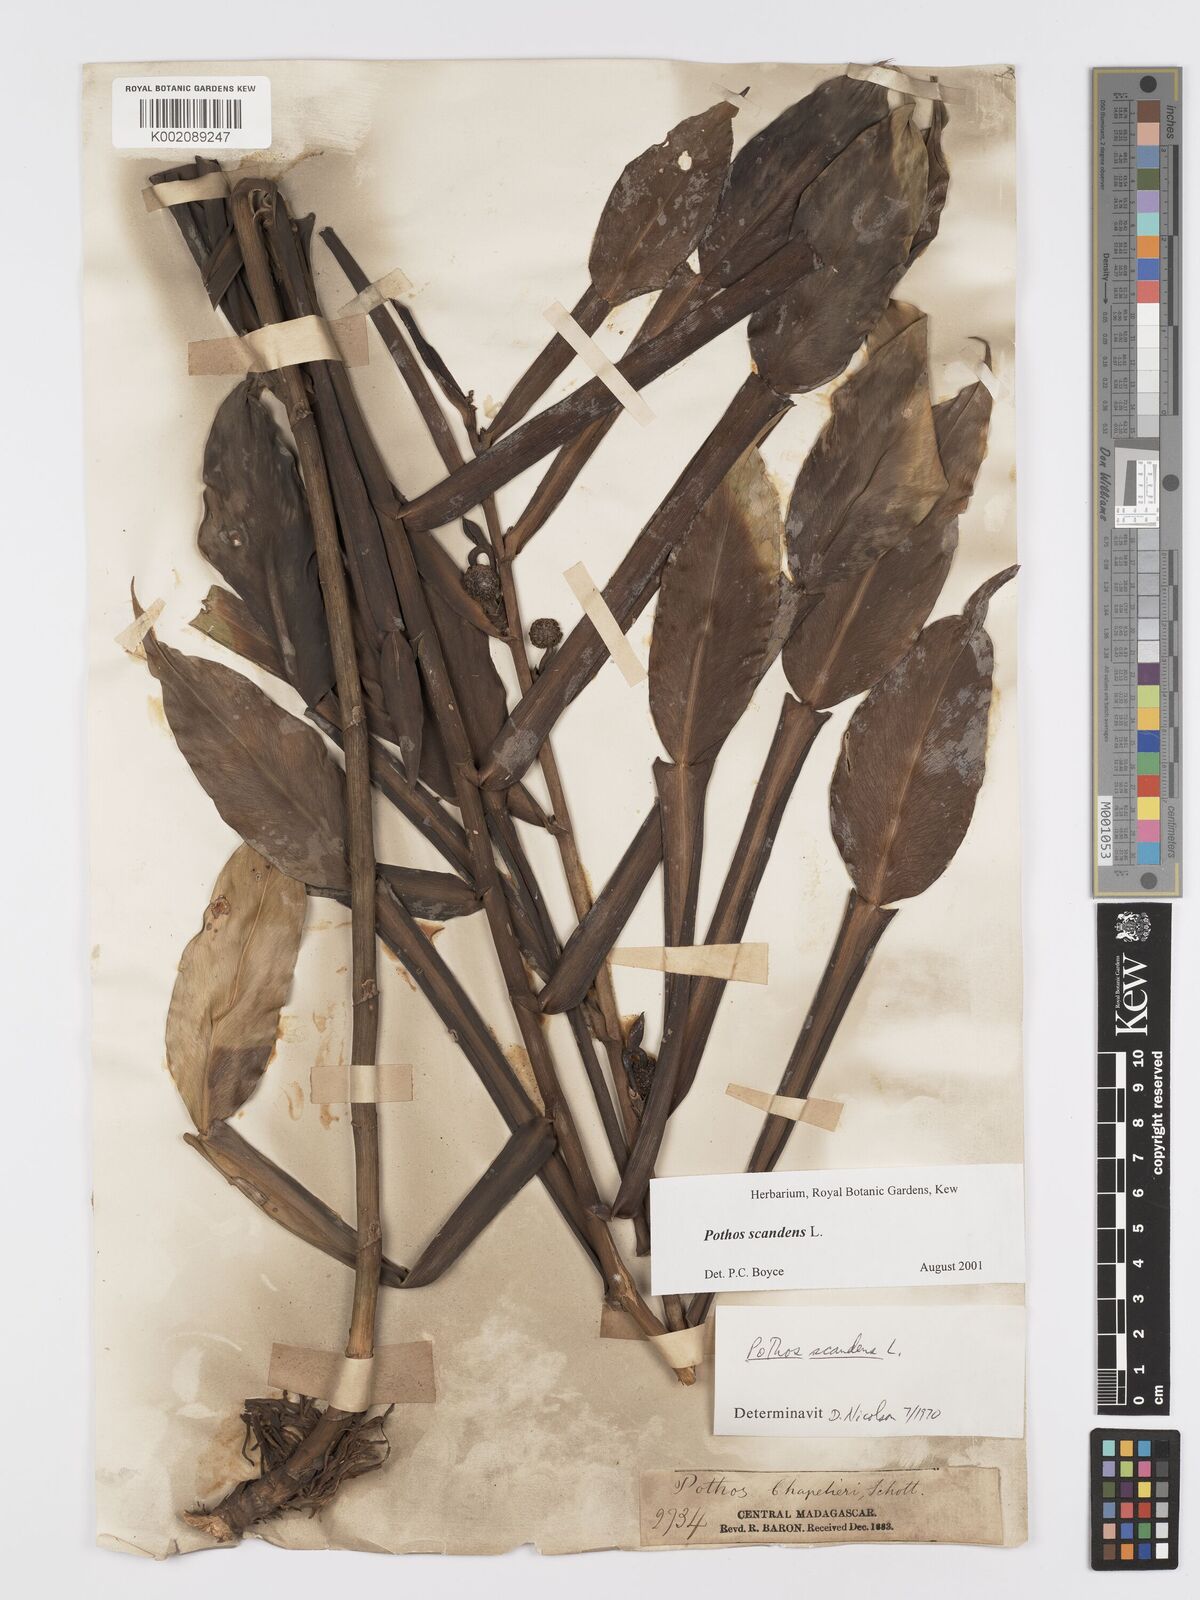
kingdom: Plantae
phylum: Tracheophyta
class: Liliopsida
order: Alismatales
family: Araceae
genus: Pothos
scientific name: Pothos scandens
